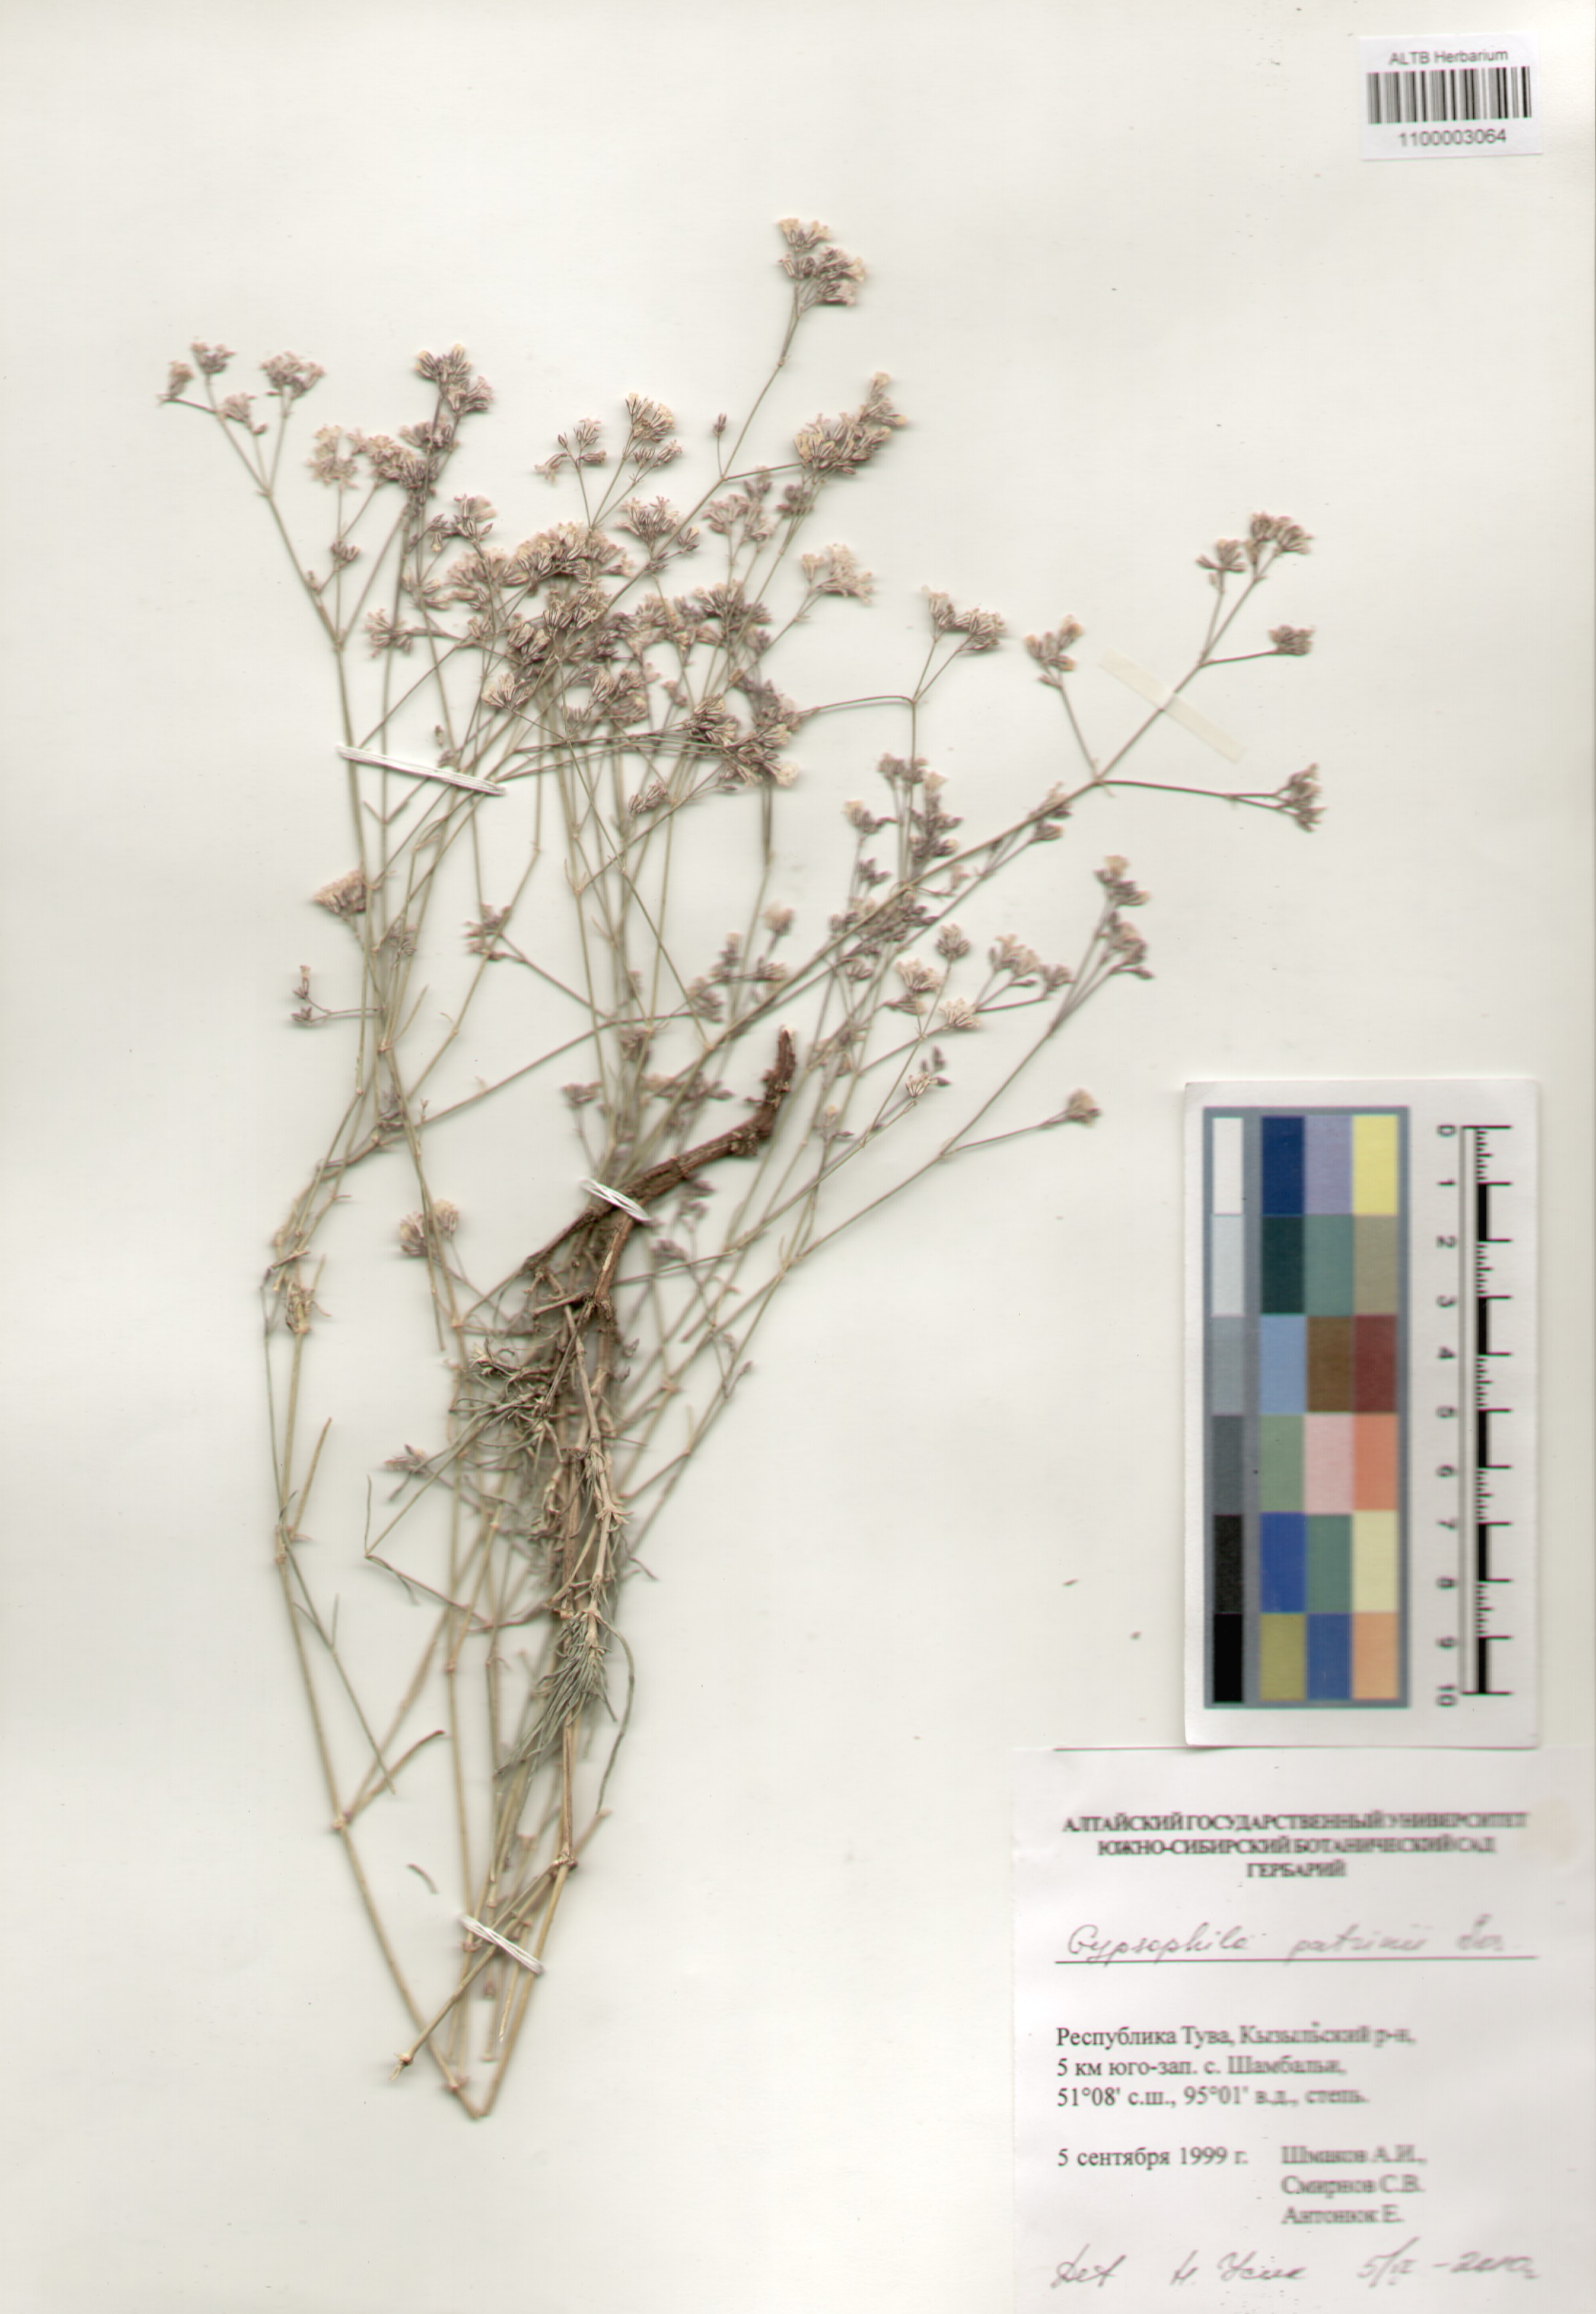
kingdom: Plantae
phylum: Tracheophyta
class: Magnoliopsida
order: Caryophyllales
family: Caryophyllaceae
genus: Gypsophila
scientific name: Gypsophila patrinii
